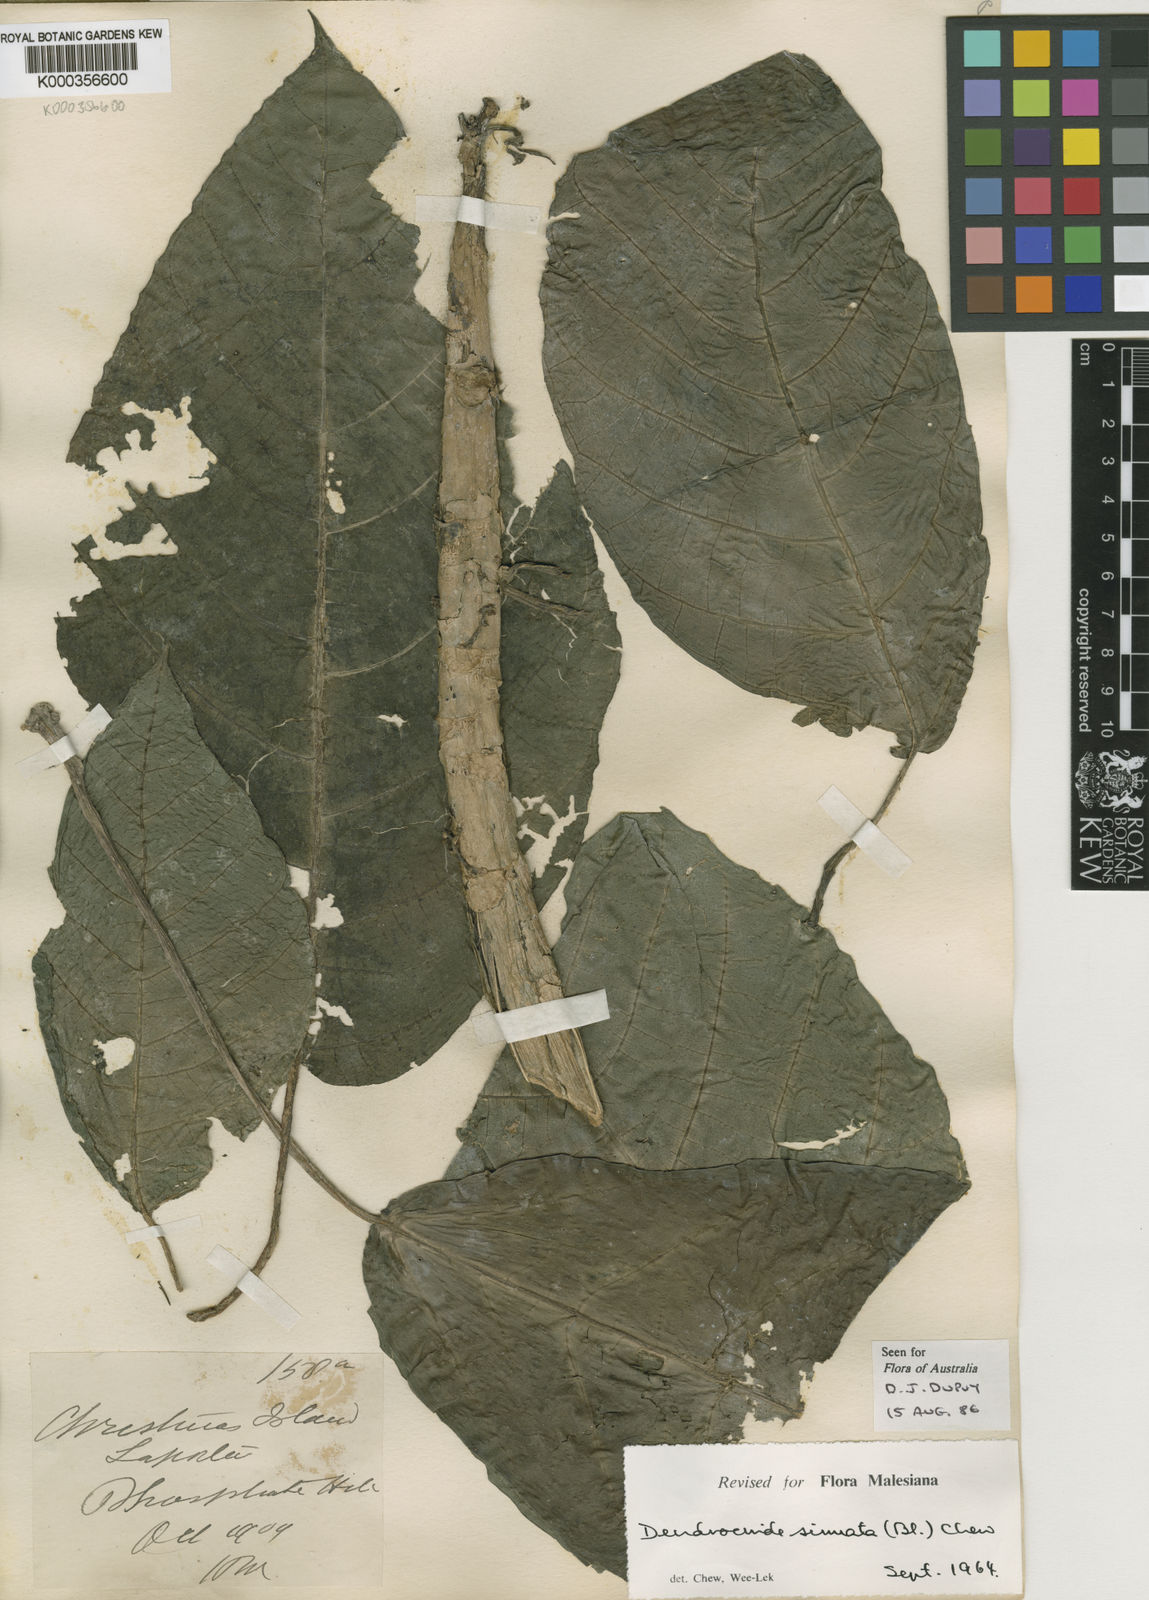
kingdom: Plantae
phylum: Tracheophyta
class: Magnoliopsida
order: Rosales
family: Urticaceae
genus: Dendrocnide
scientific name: Dendrocnide sinuata
